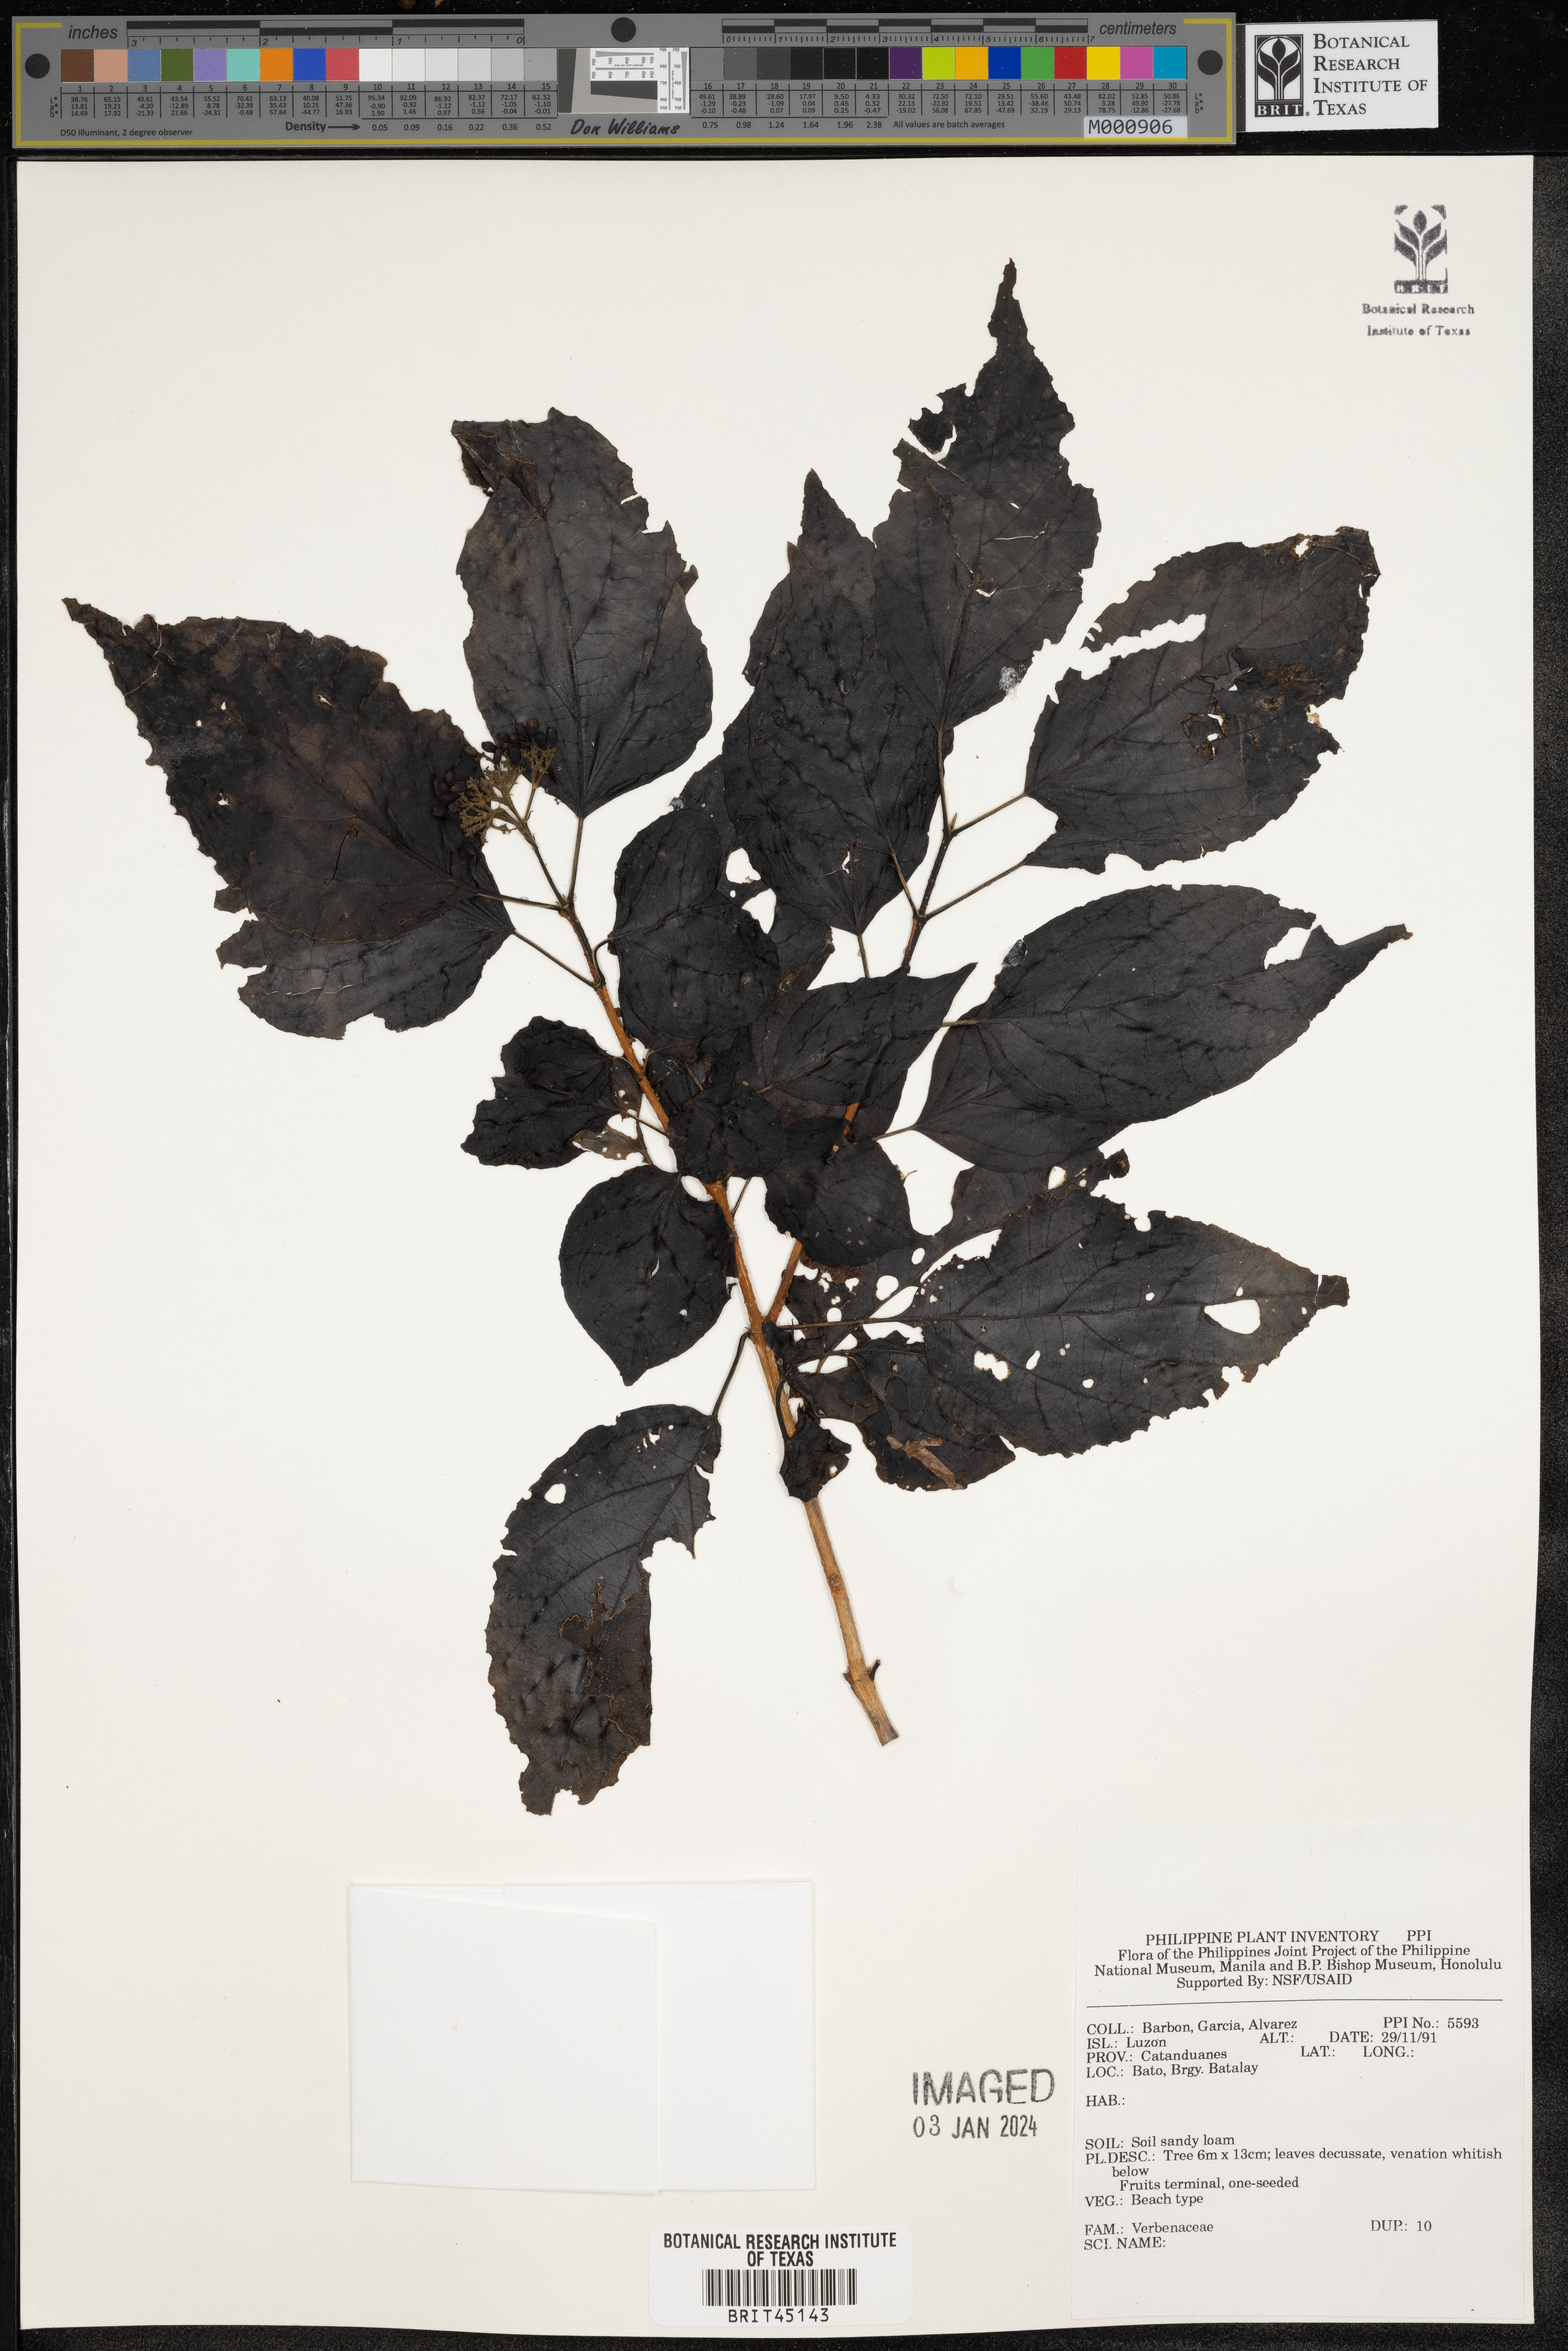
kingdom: Plantae
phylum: Tracheophyta
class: Magnoliopsida
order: Lamiales
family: Verbenaceae
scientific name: Verbenaceae
